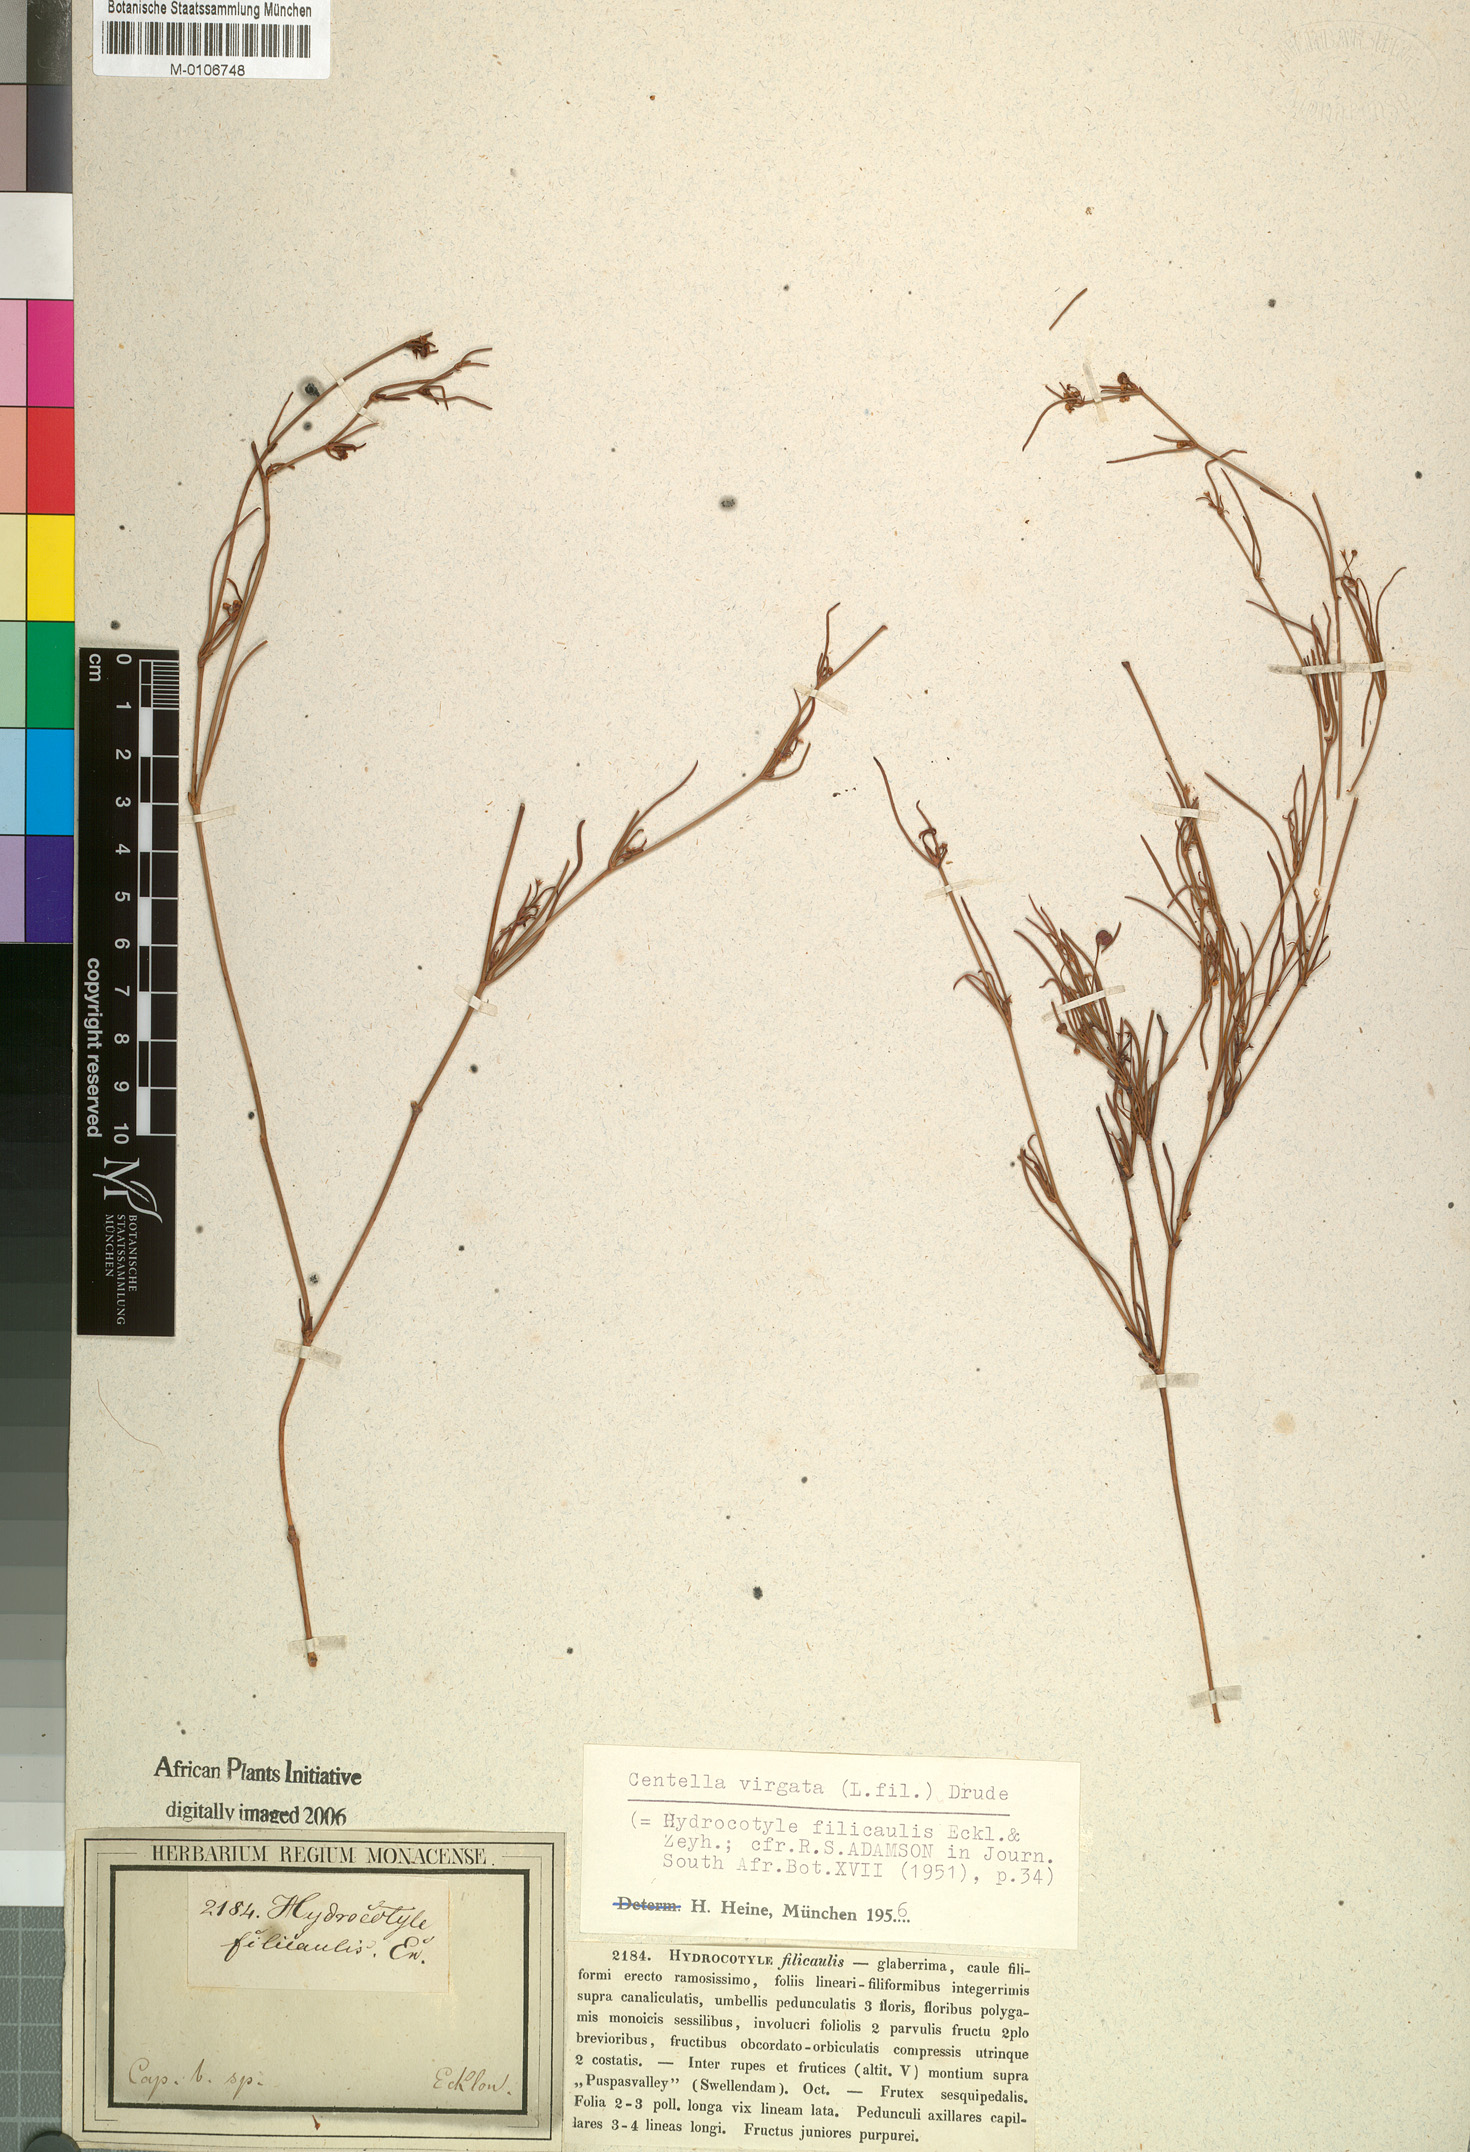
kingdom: Plantae
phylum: Tracheophyta
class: Magnoliopsida
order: Apiales
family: Apiaceae
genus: Centella
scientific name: Centella virgata
